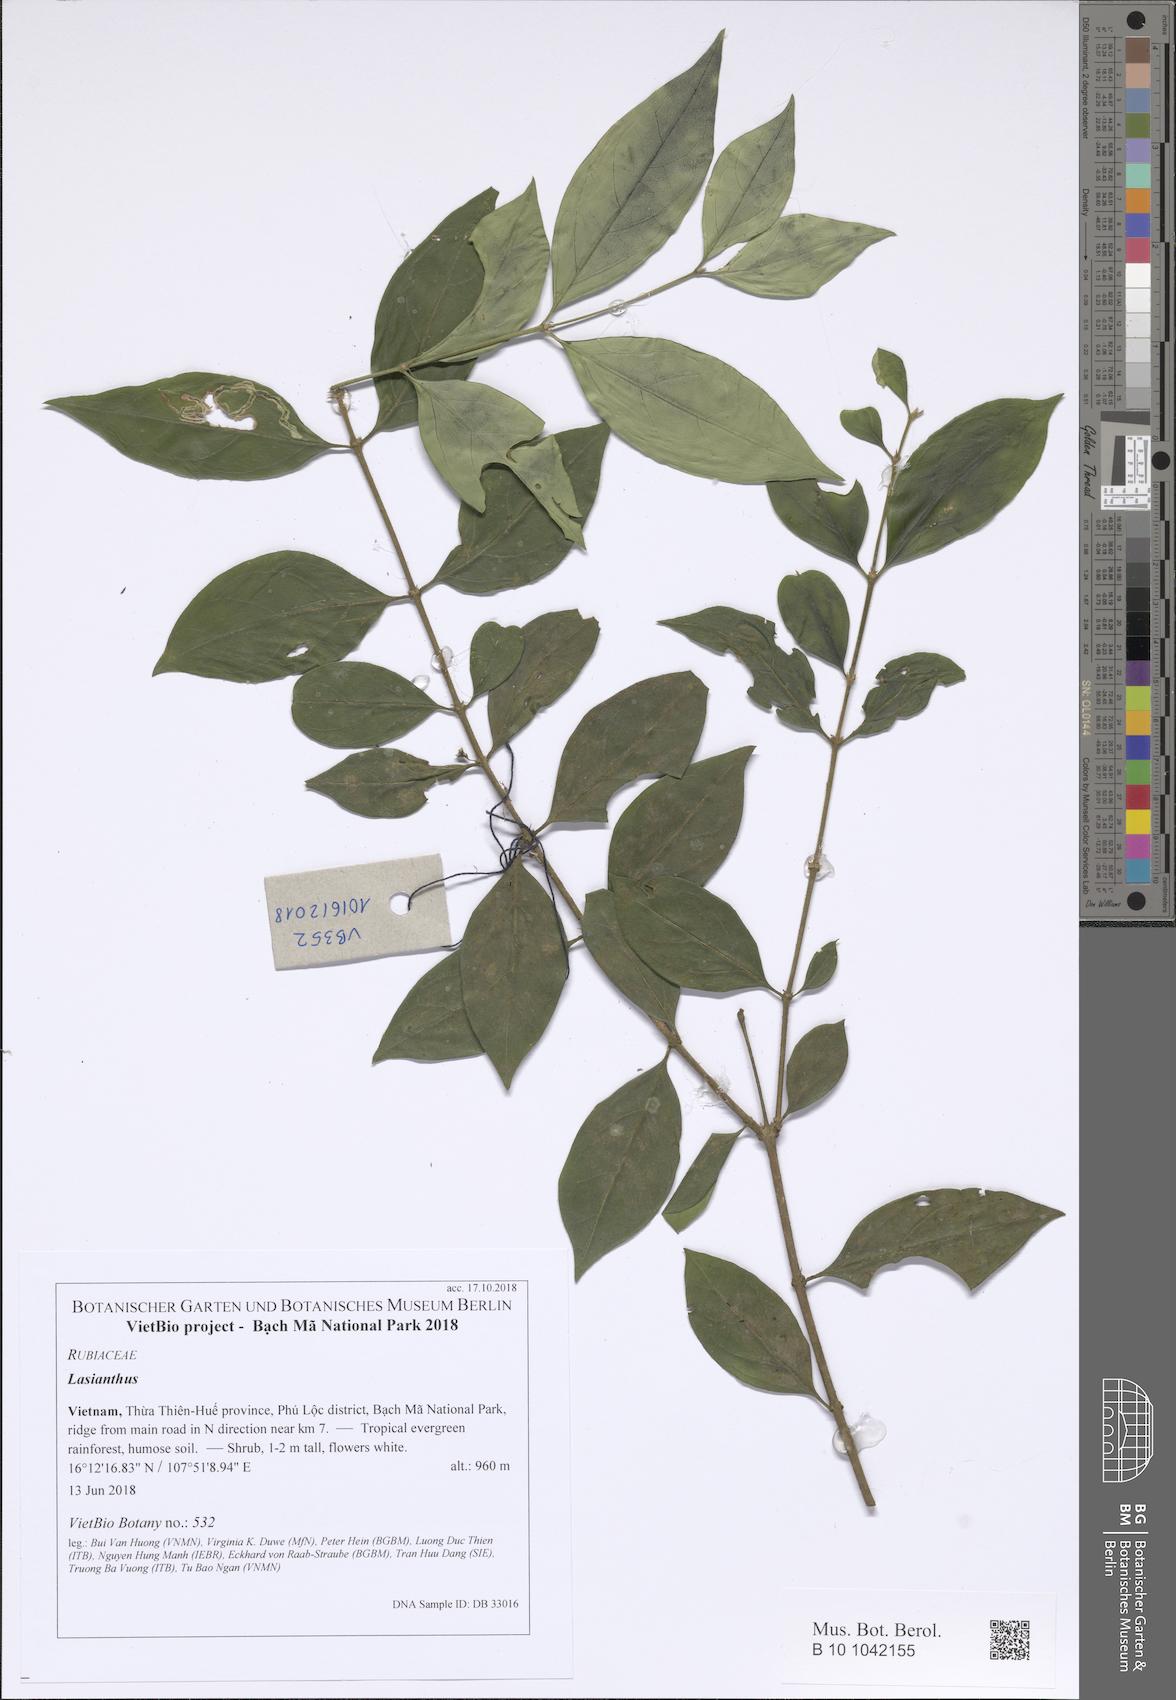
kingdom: Plantae
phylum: Tracheophyta
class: Magnoliopsida
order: Gentianales
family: Rubiaceae
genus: Lasianthus
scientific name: Lasianthus
